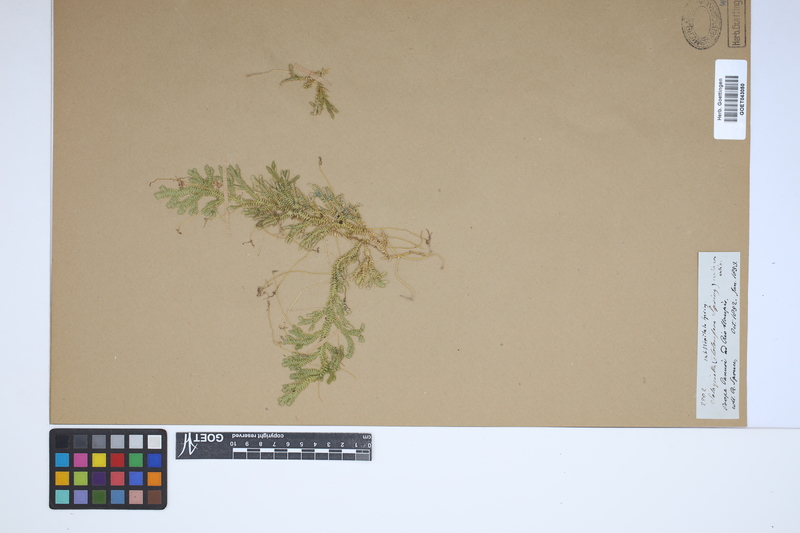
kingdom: Plantae
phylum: Tracheophyta
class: Lycopodiopsida
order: Selaginellales
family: Selaginellaceae
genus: Selaginella
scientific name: Selaginella substipitata
